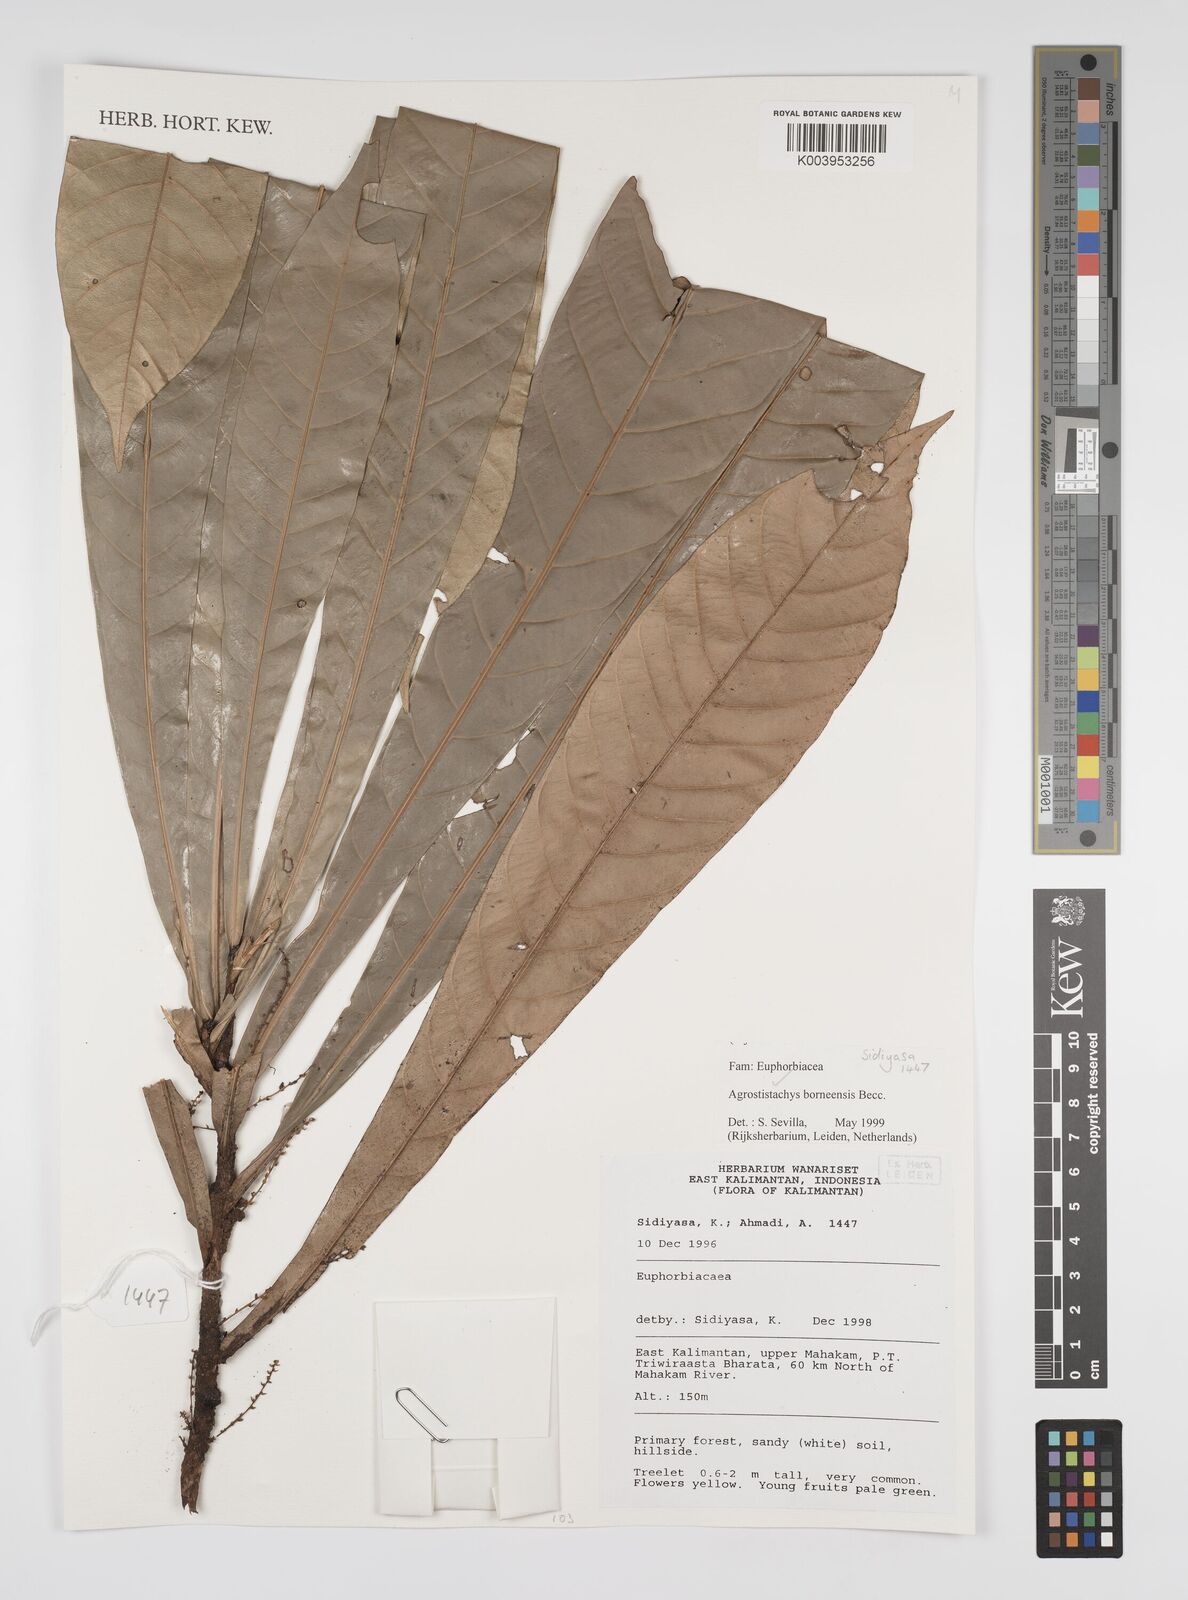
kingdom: Plantae
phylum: Tracheophyta
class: Magnoliopsida
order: Malpighiales
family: Euphorbiaceae
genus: Agrostistachys
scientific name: Agrostistachys borneensis
